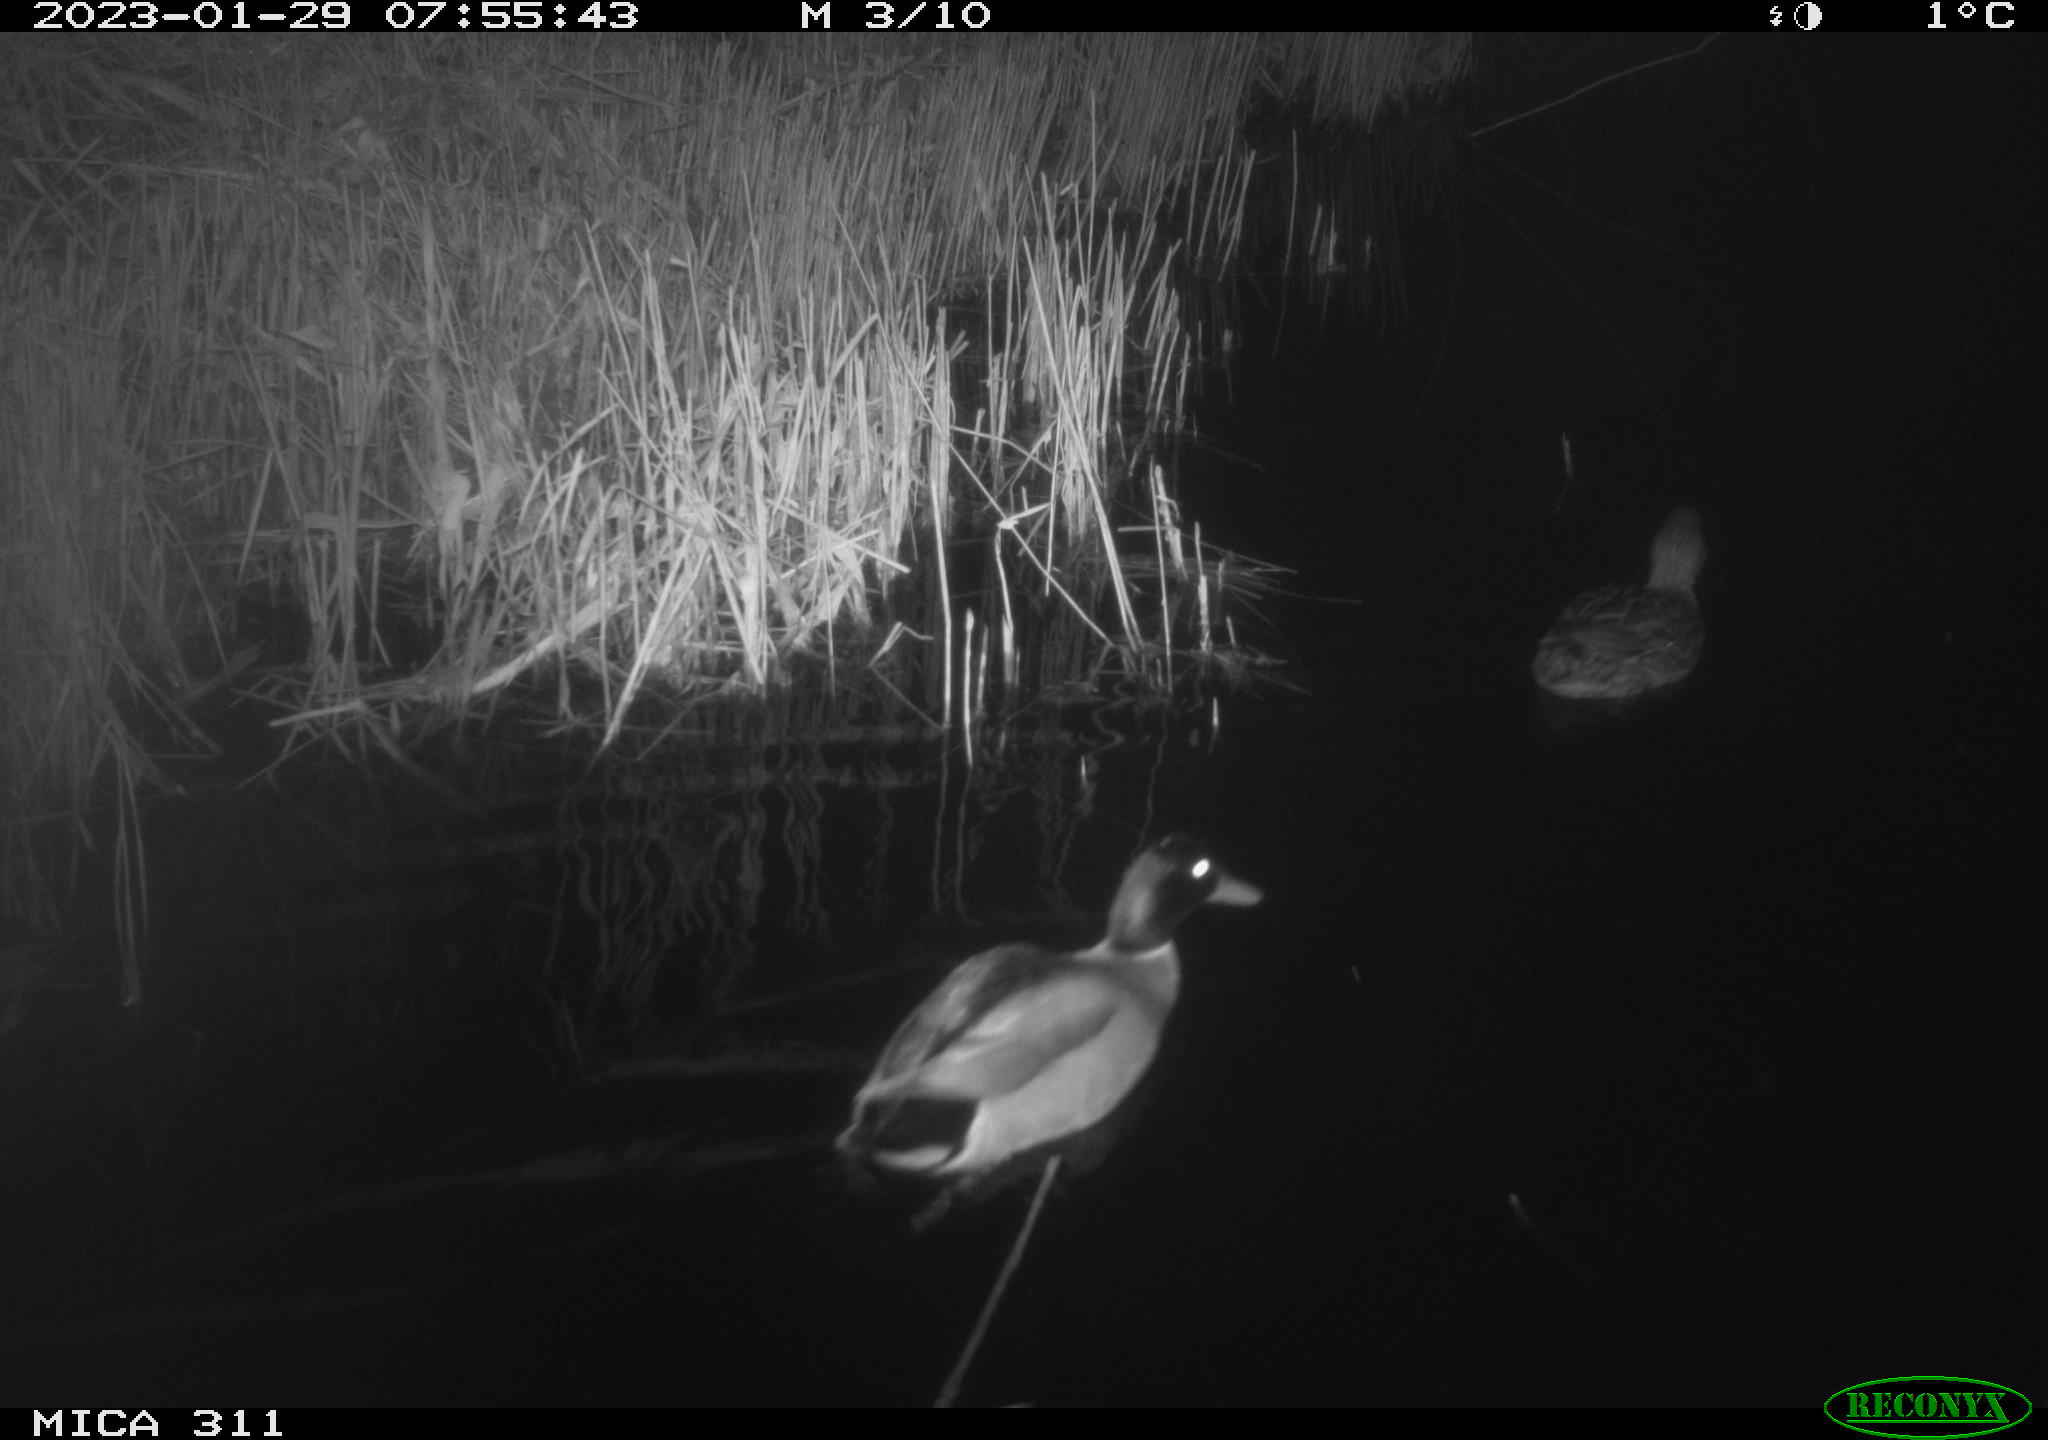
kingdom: Animalia
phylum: Chordata
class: Aves
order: Anseriformes
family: Anatidae
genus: Anas
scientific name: Anas
